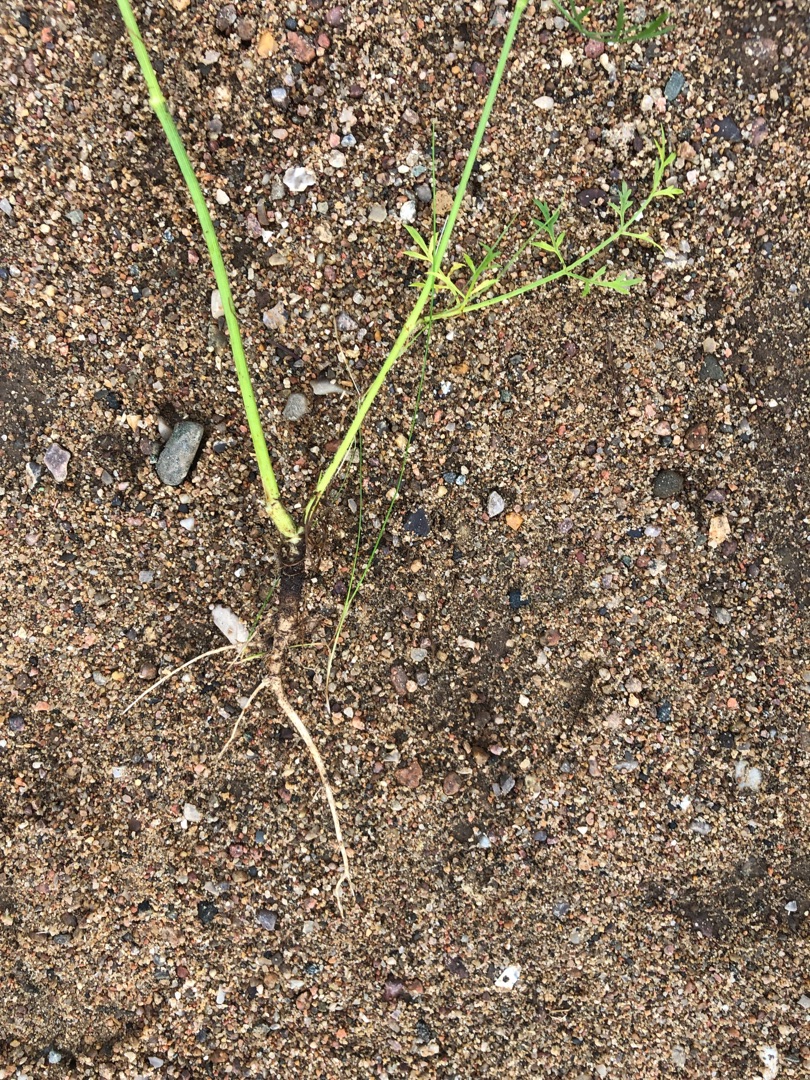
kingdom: Plantae
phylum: Tracheophyta
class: Magnoliopsida
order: Apiales
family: Apiaceae
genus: Daucus
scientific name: Daucus carota
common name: Gulerod
